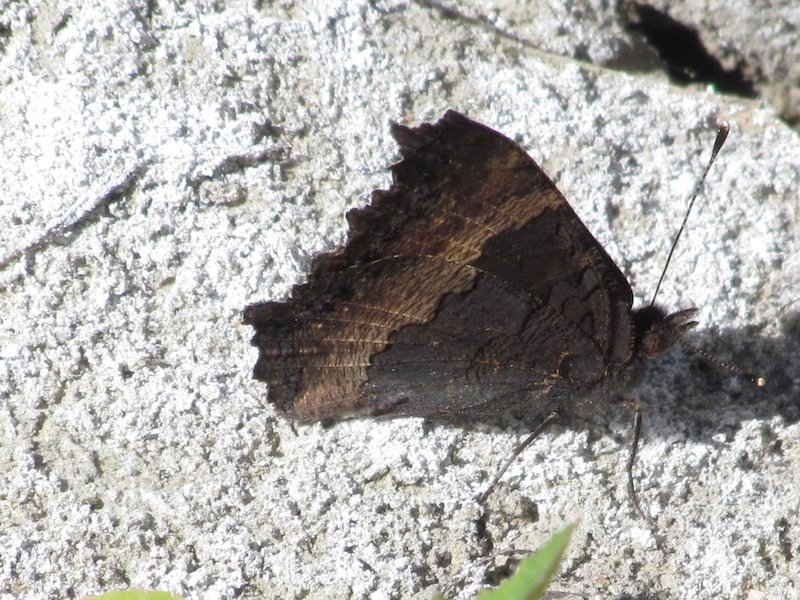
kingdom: Animalia
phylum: Arthropoda
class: Insecta
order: Lepidoptera
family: Nymphalidae
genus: Aglais
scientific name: Aglais milberti
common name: Milbert's Tortoiseshell
